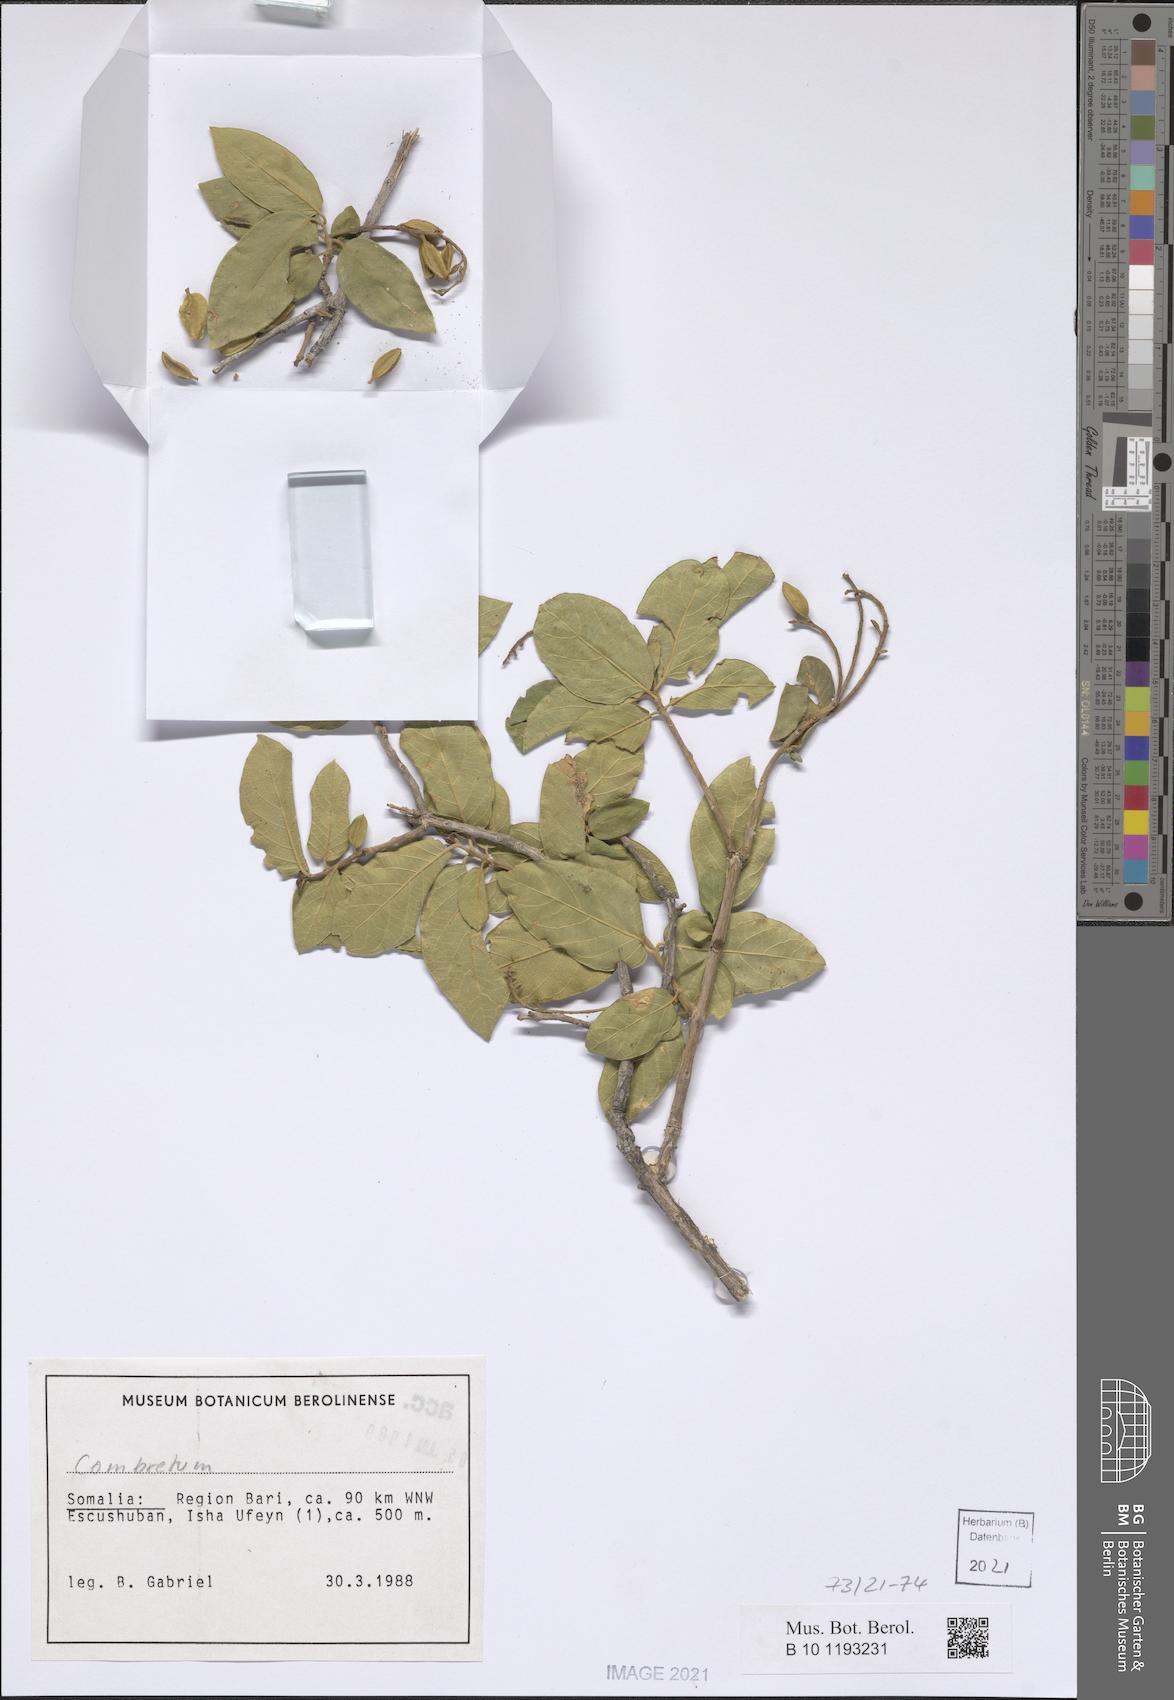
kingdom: Plantae
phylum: Tracheophyta
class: Magnoliopsida
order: Myrtales
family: Combretaceae
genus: Combretum
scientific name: Combretum molle
